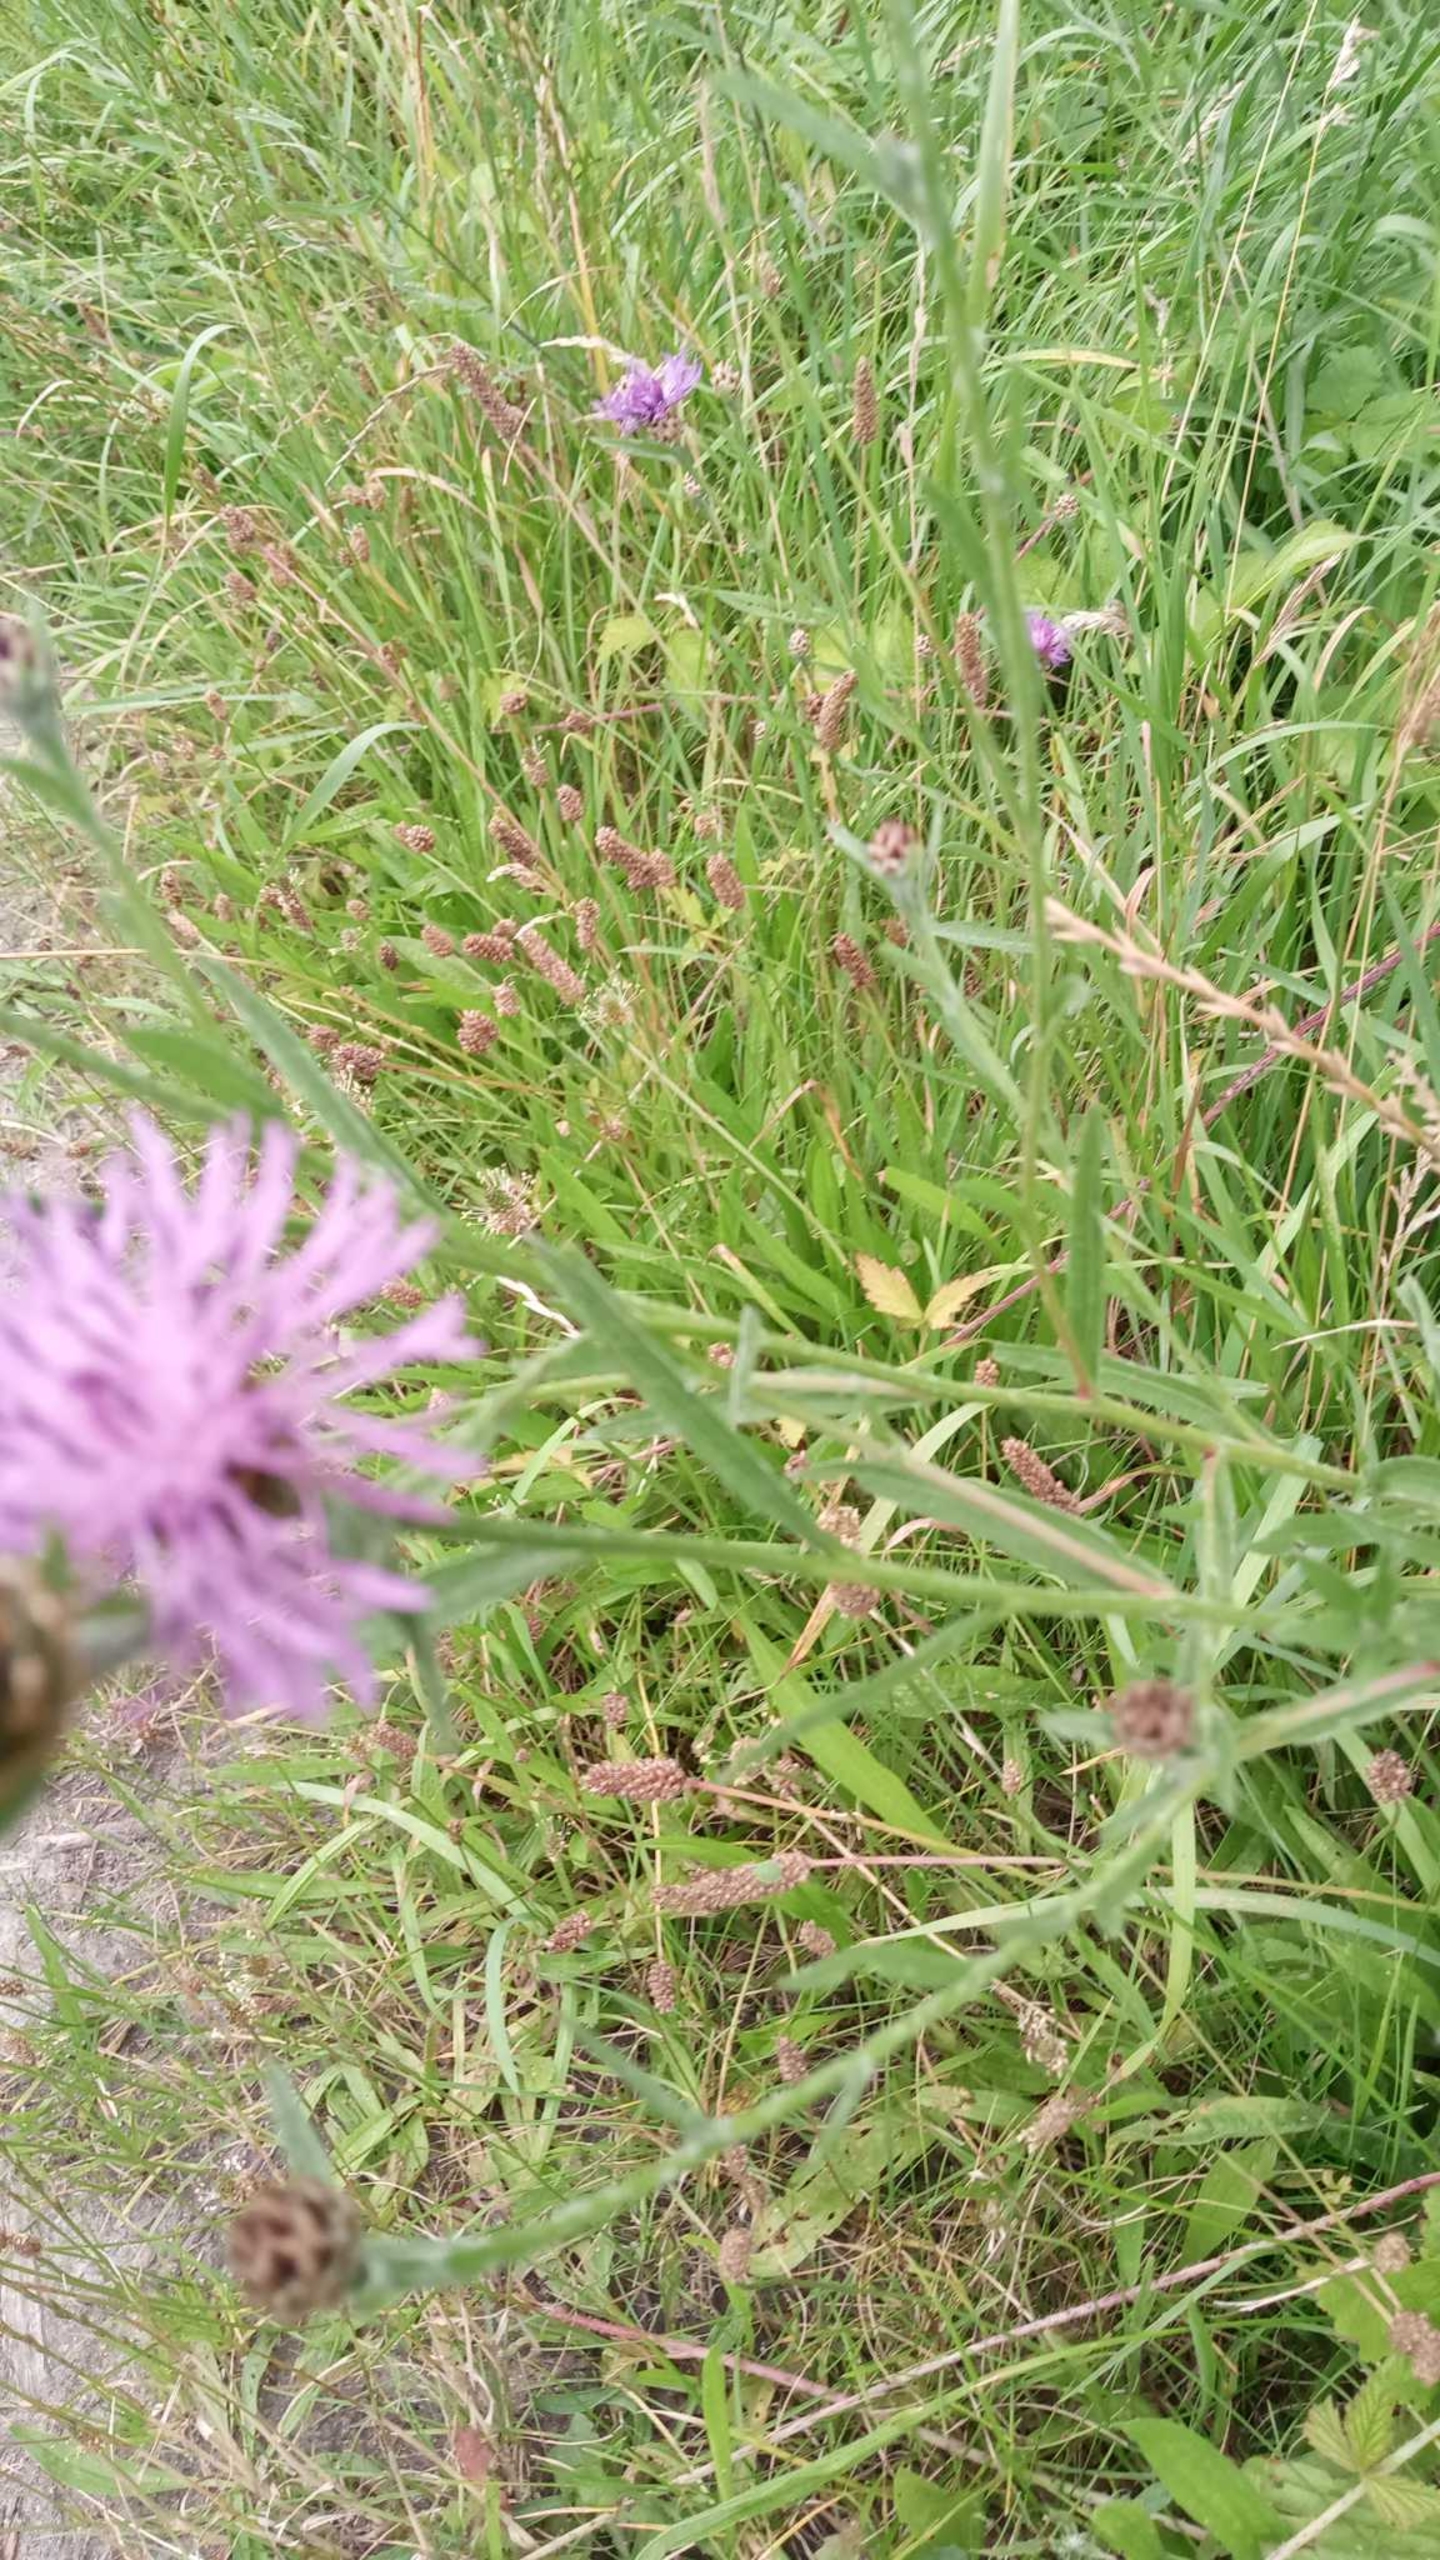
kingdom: Plantae
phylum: Tracheophyta
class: Magnoliopsida
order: Asterales
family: Asteraceae
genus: Centaurea
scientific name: Centaurea jacea
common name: Almindelig knopurt
